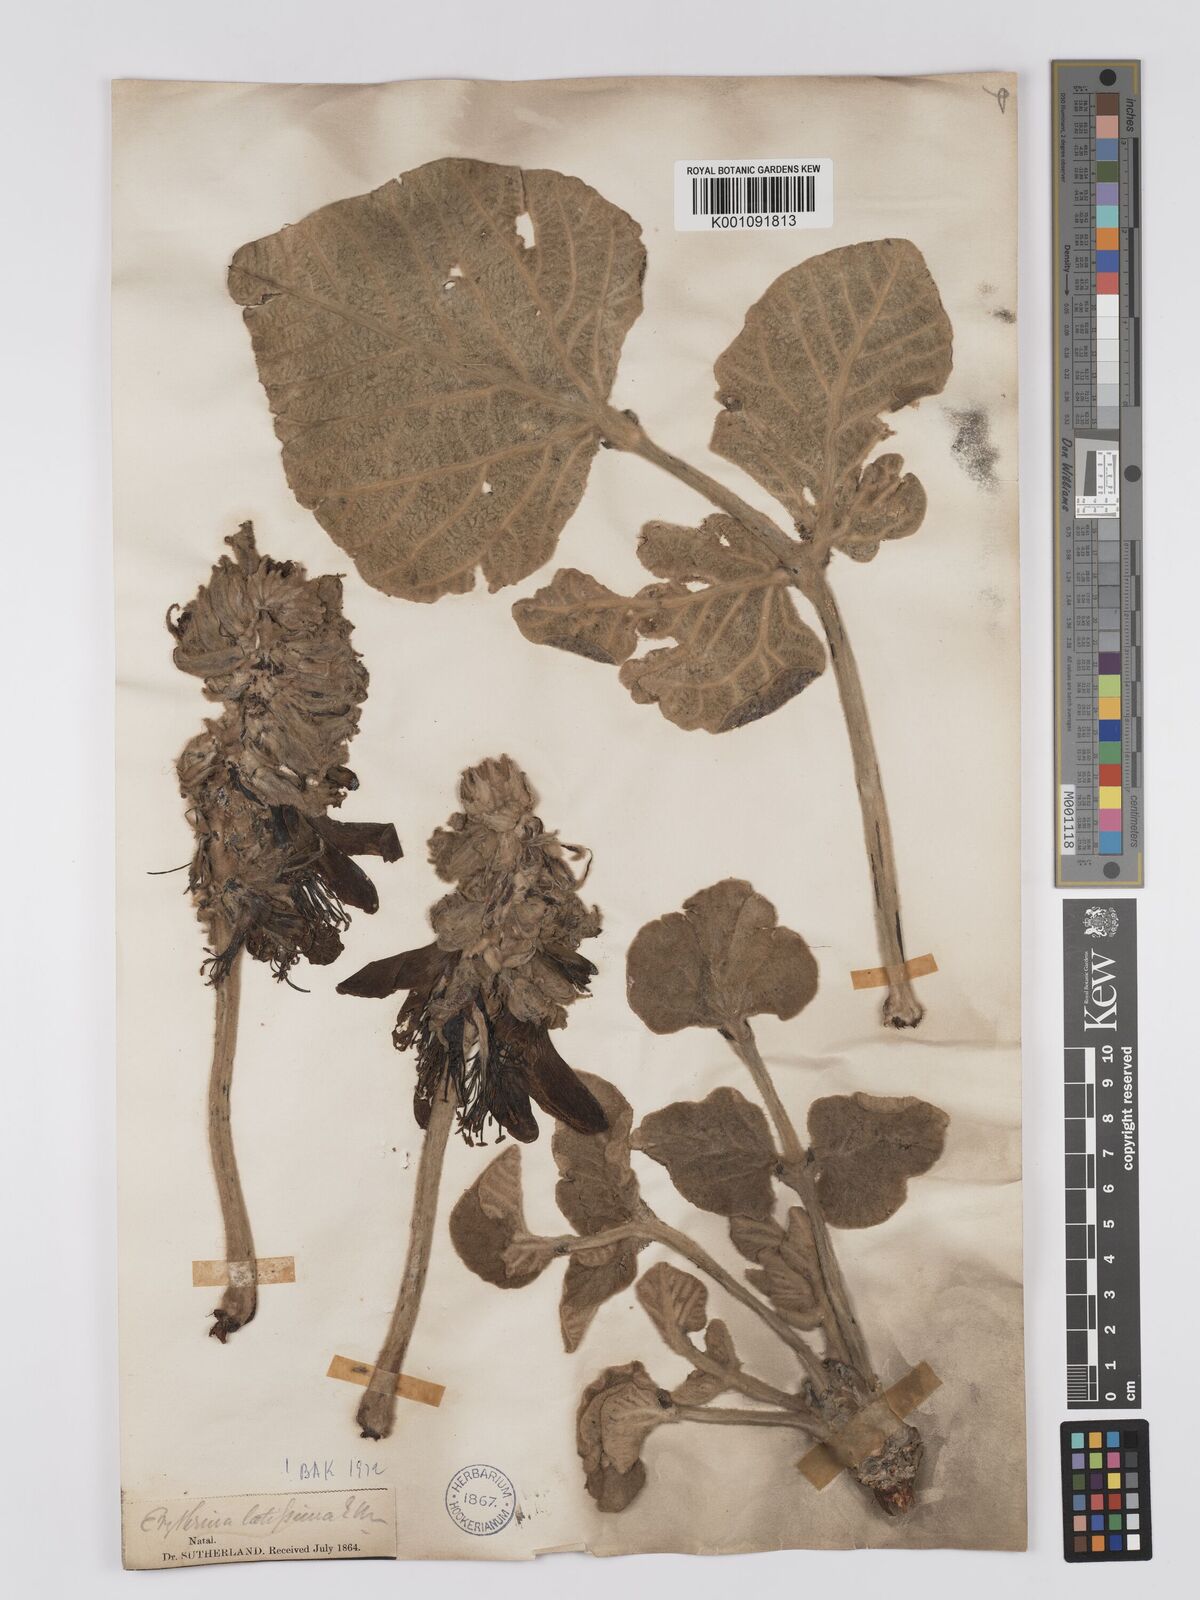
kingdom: Plantae
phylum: Tracheophyta
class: Magnoliopsida
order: Fabales
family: Fabaceae
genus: Erythrina
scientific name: Erythrina latissima
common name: Broad-leaved coral tree
